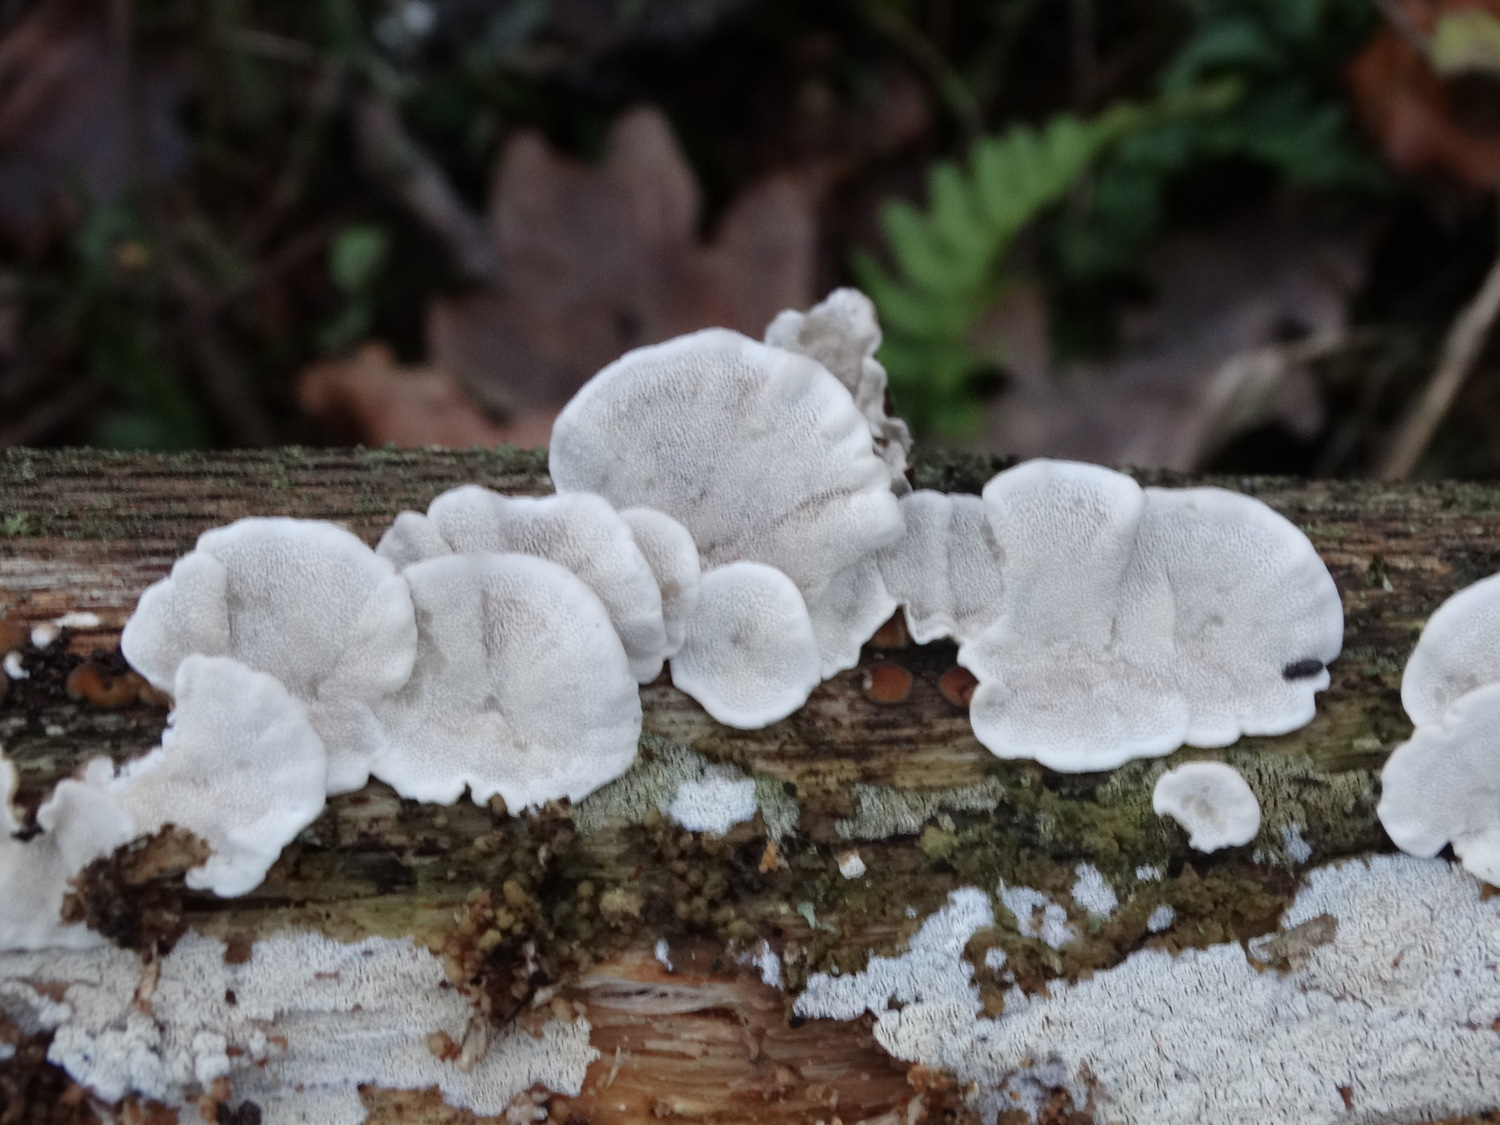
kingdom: Fungi
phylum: Basidiomycota
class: Agaricomycetes
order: Polyporales
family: Polyporaceae
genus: Trametes
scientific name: Trametes versicolor
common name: broget læderporesvamp
